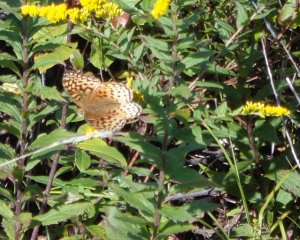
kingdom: Animalia
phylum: Arthropoda
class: Insecta
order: Lepidoptera
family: Nymphalidae
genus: Speyeria
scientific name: Speyeria cybele
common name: Great Spangled Fritillary
